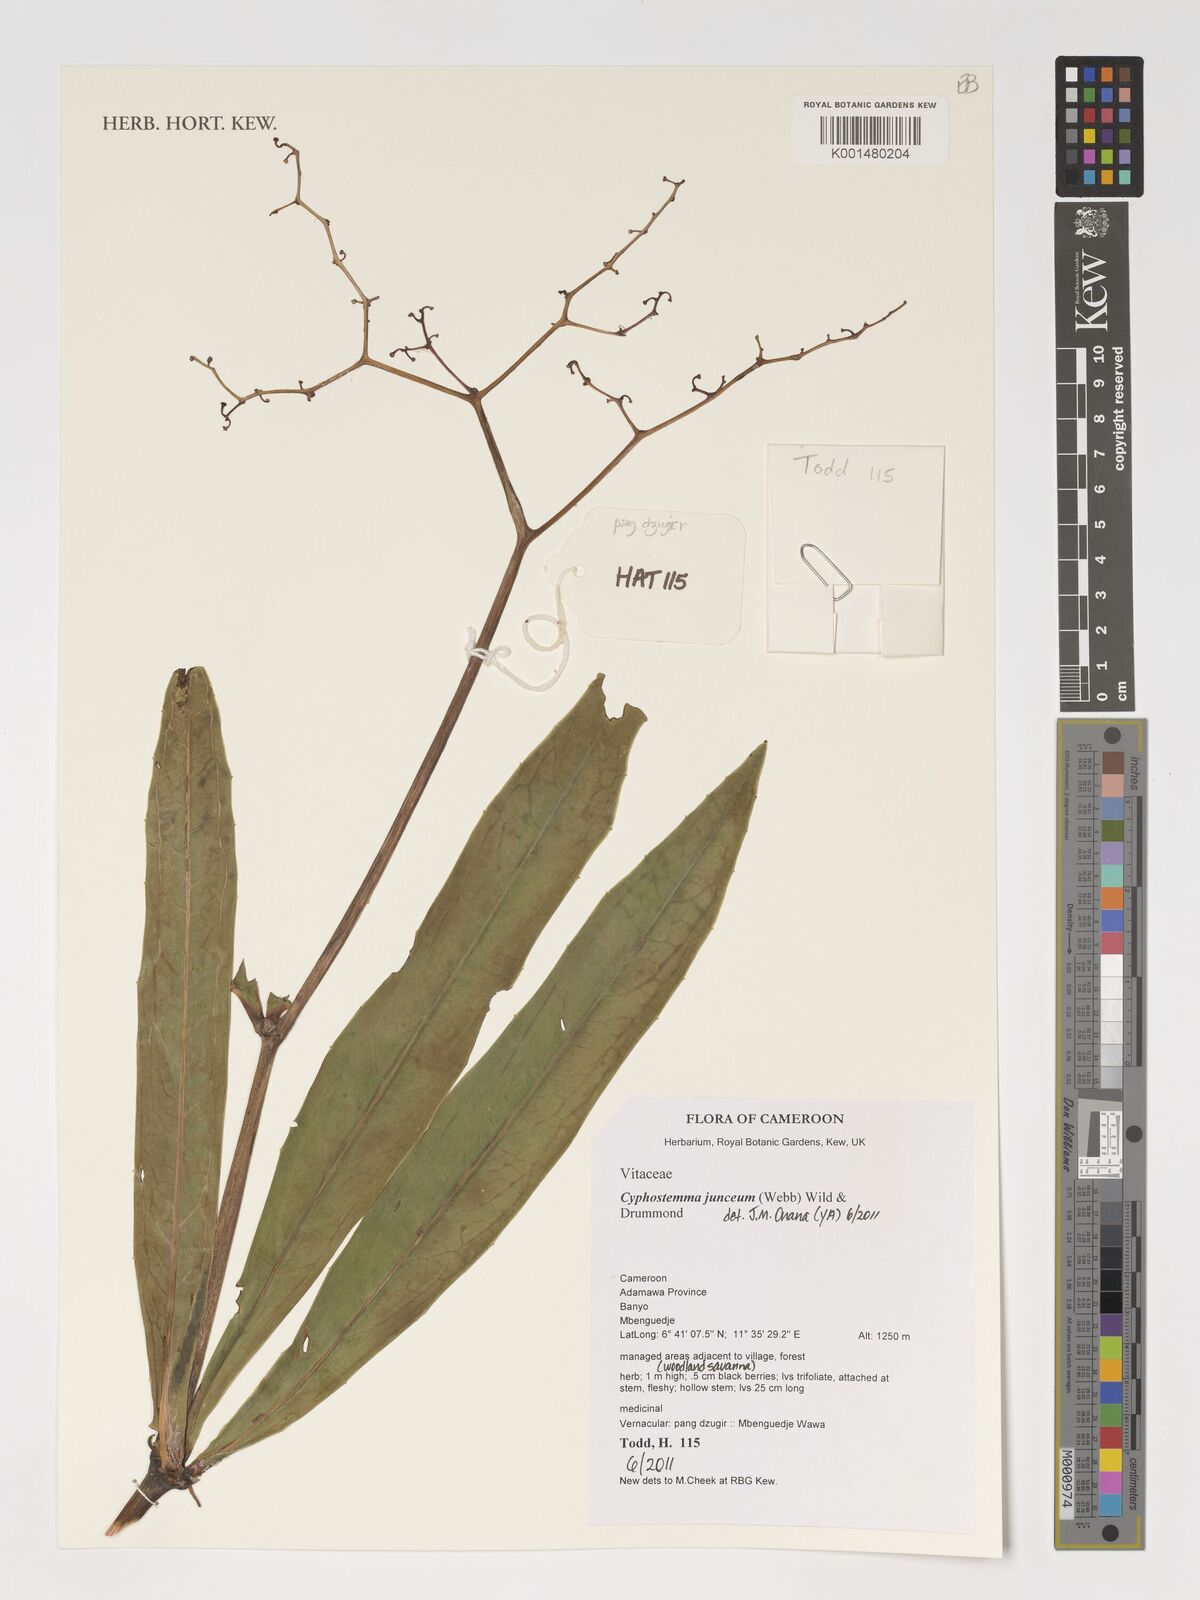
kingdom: Plantae
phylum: Tracheophyta
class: Magnoliopsida
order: Vitales
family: Vitaceae
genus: Cyphostemma
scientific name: Cyphostemma junceum
